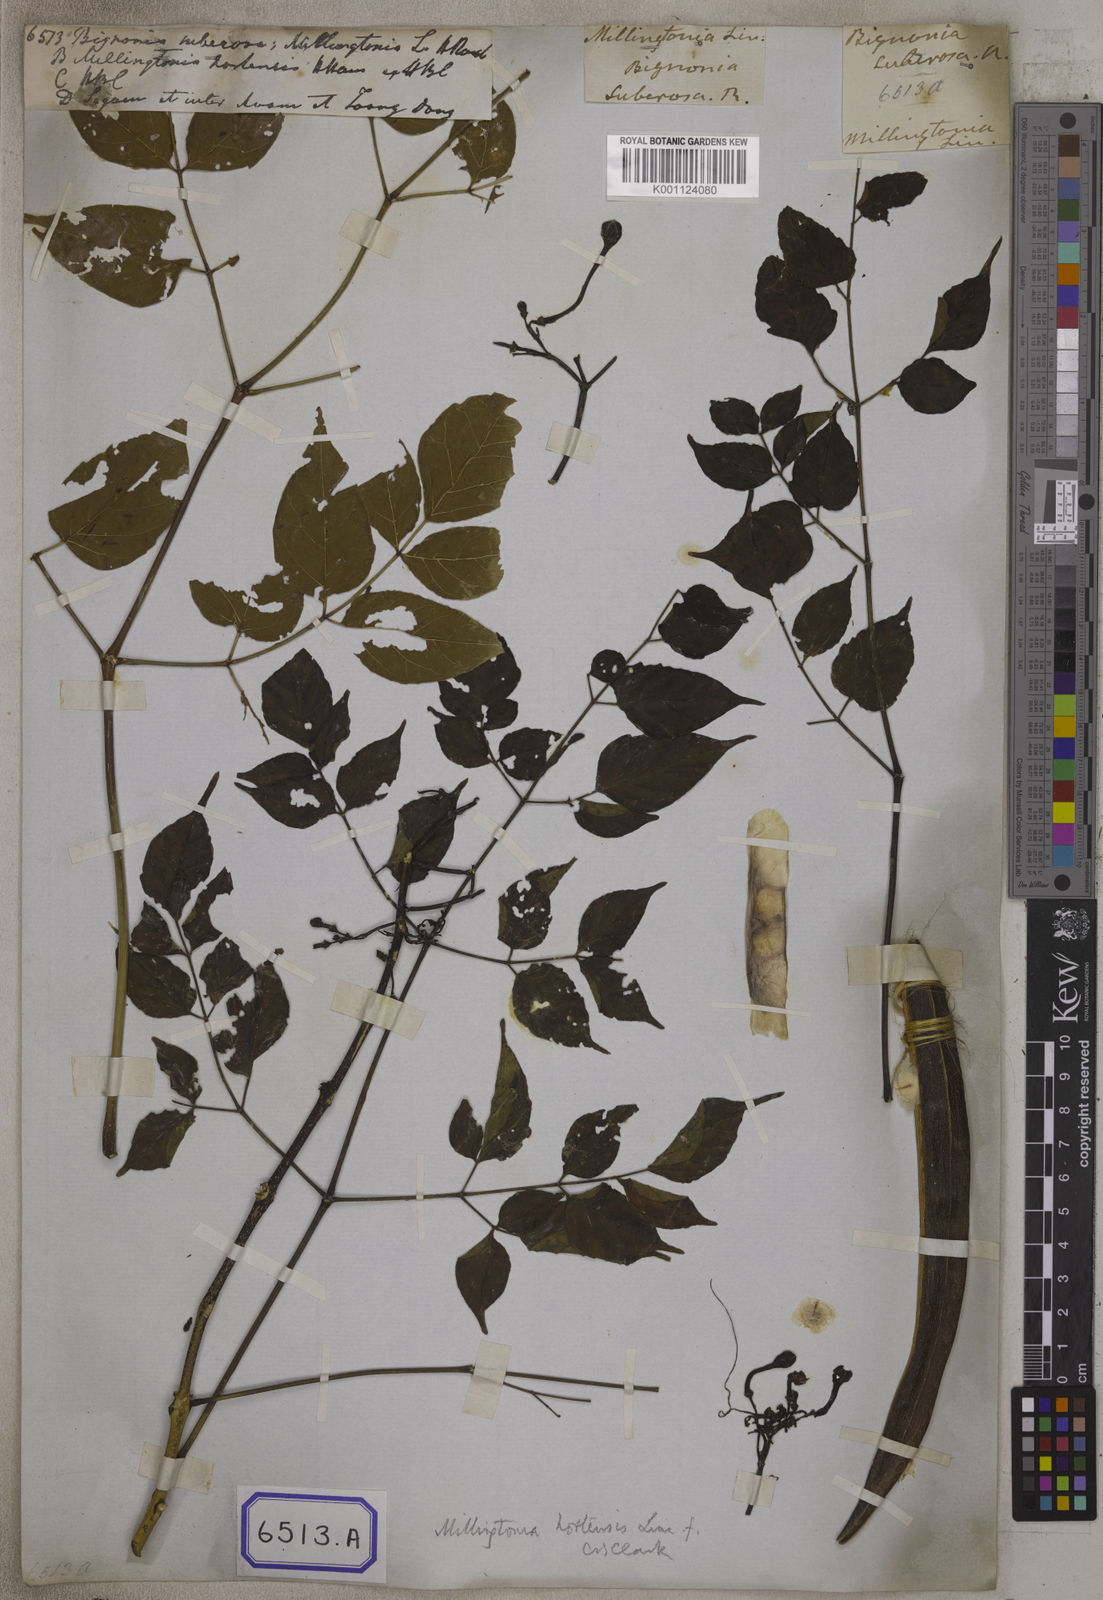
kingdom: Plantae
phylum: Tracheophyta
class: Magnoliopsida
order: Lamiales
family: Bignoniaceae
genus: Bignonia
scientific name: Bignonia
